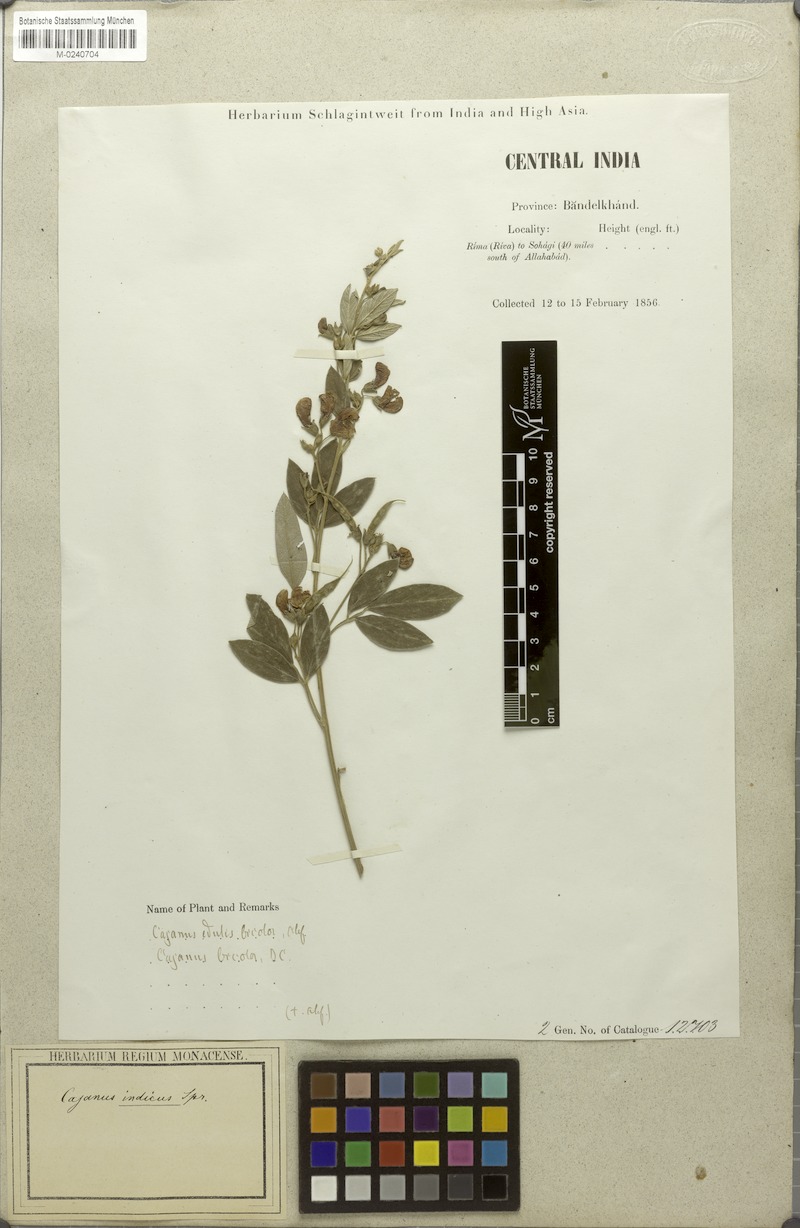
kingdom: Plantae
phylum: Tracheophyta
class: Magnoliopsida
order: Fabales
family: Fabaceae
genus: Cajanus
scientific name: Cajanus cajan
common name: Pigeonpea
